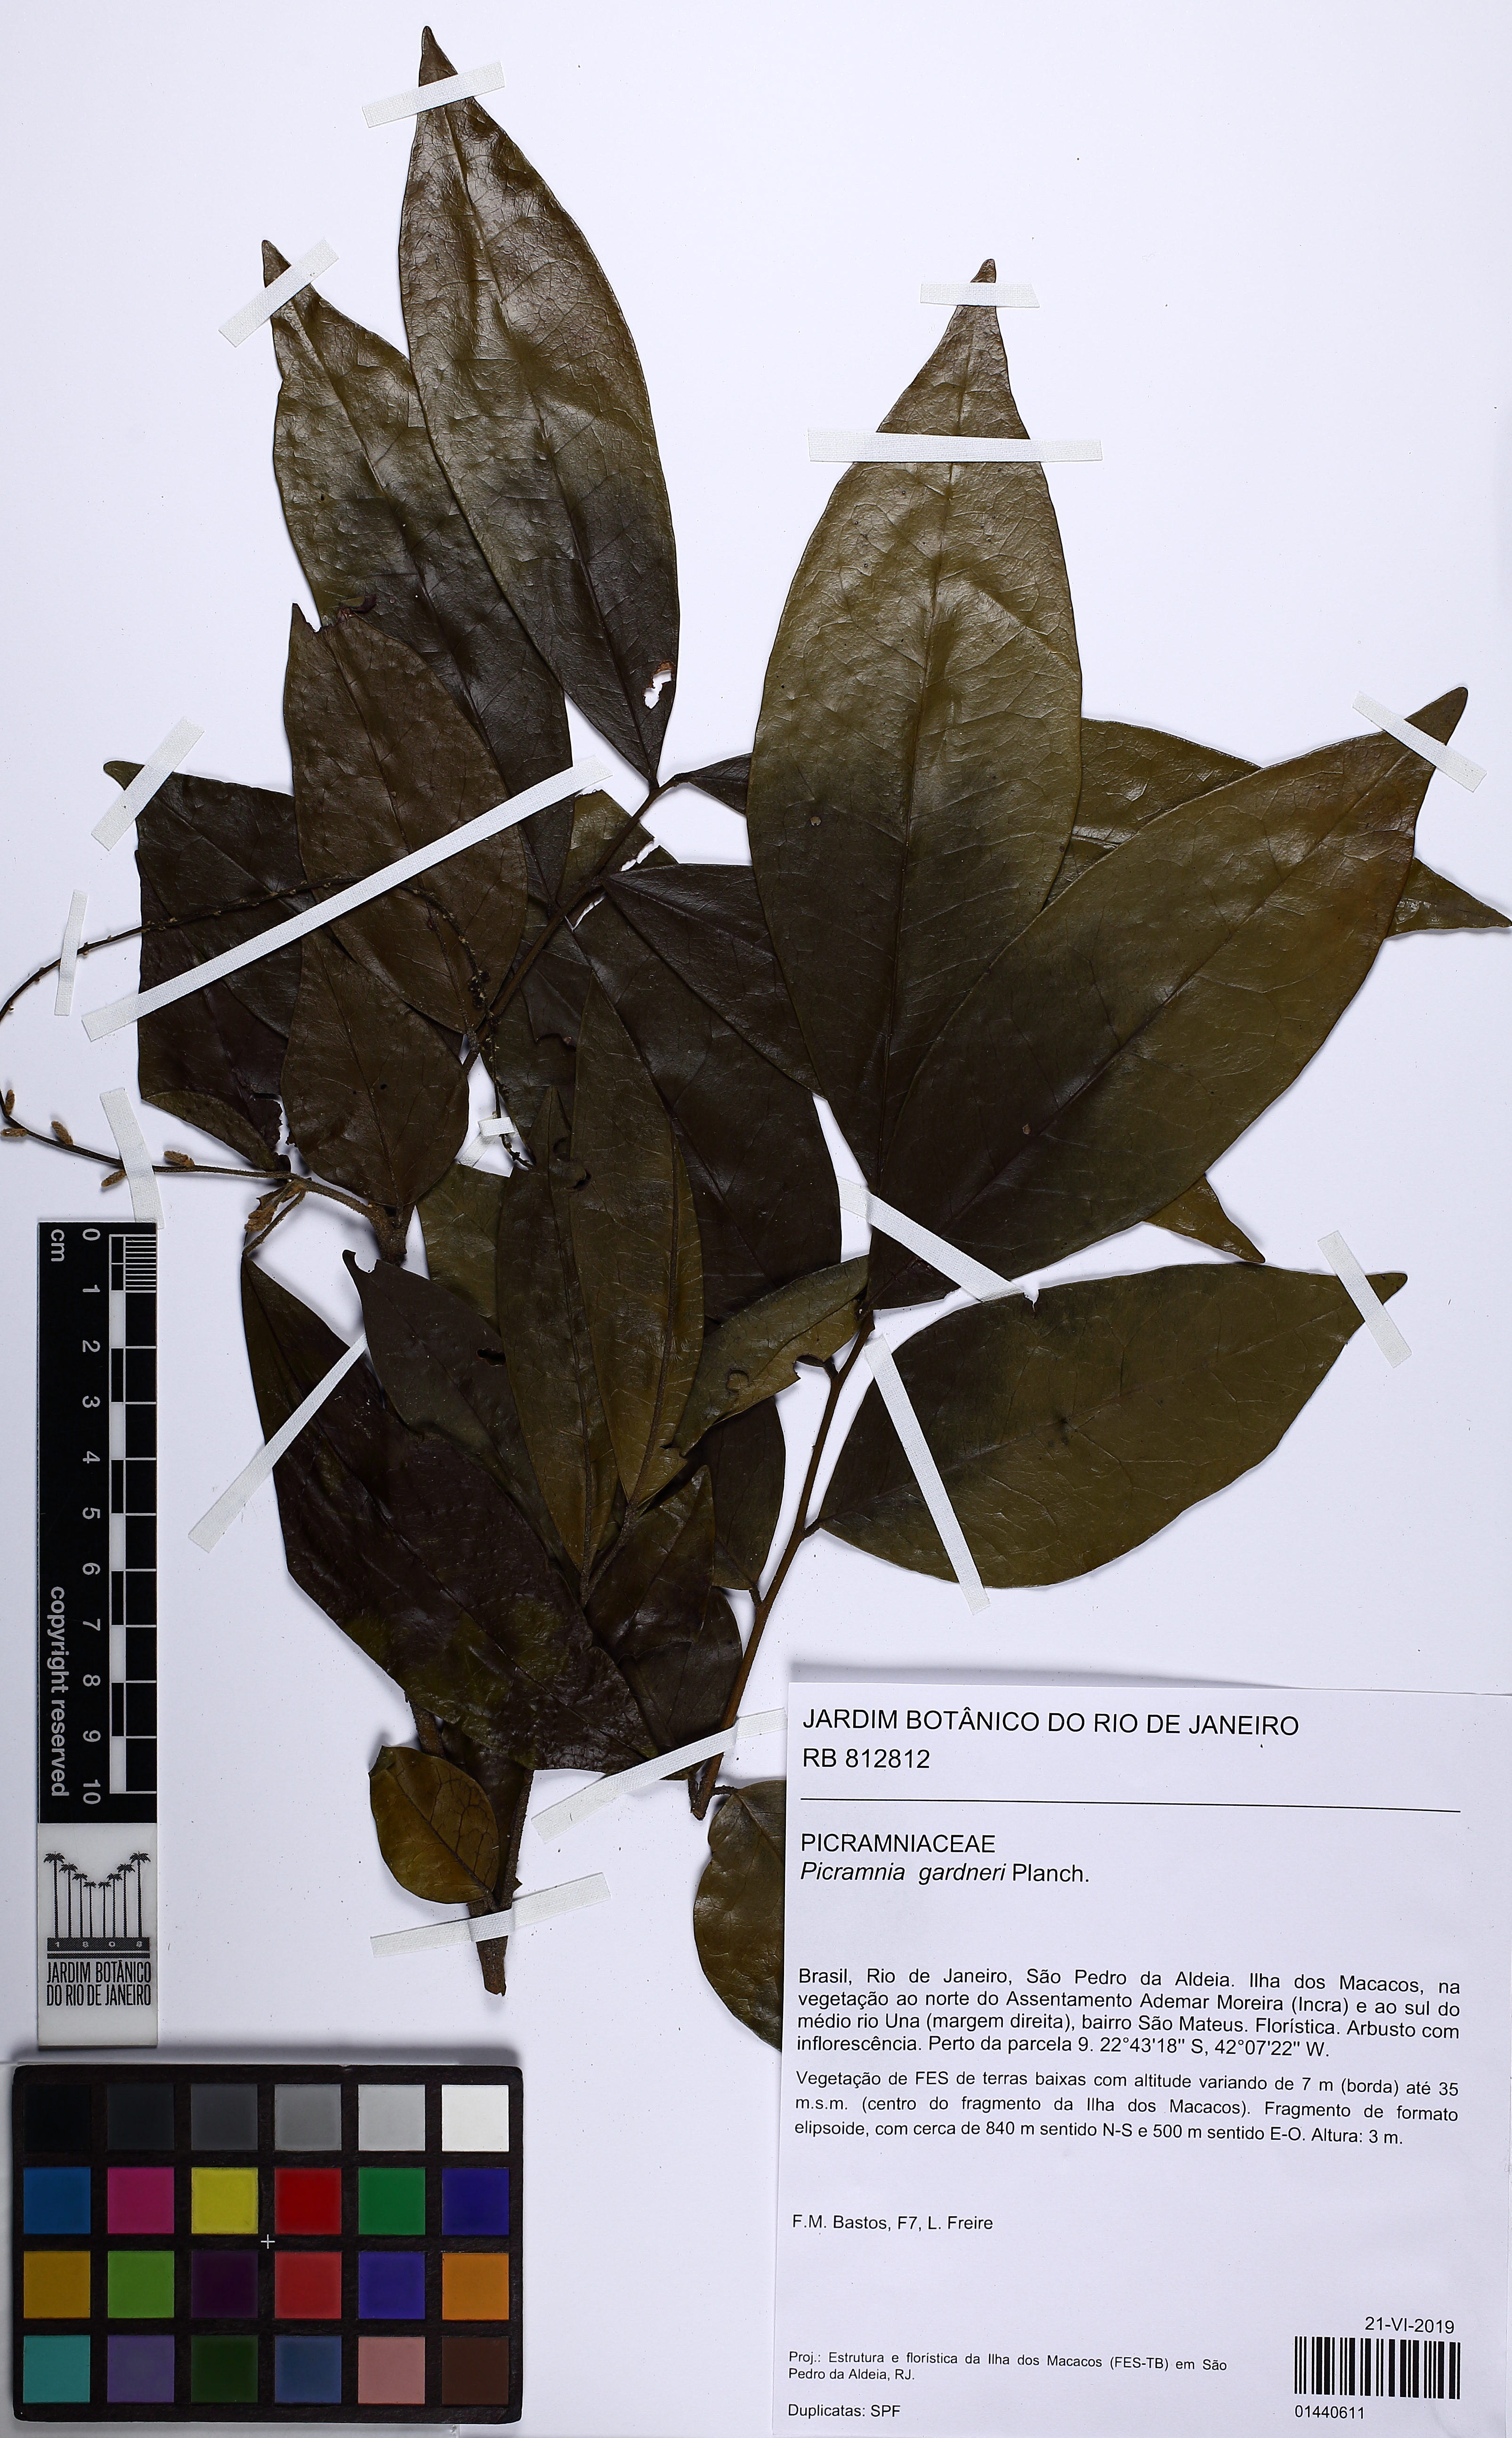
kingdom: Plantae
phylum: Tracheophyta
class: Magnoliopsida
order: Picramniales
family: Picramniaceae
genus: Picramnia
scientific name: Picramnia gardneri
